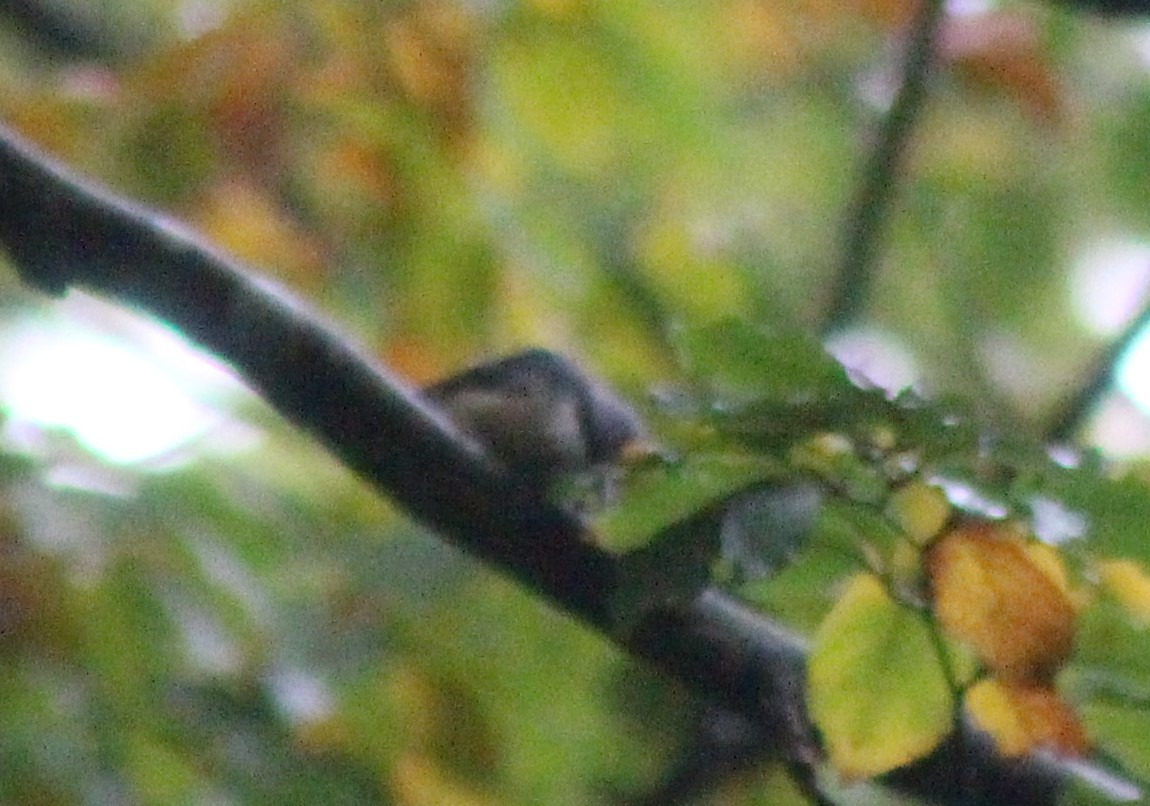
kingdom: Animalia
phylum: Chordata
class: Aves
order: Passeriformes
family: Sittidae
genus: Sitta
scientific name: Sitta europaea
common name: Spætmejse
